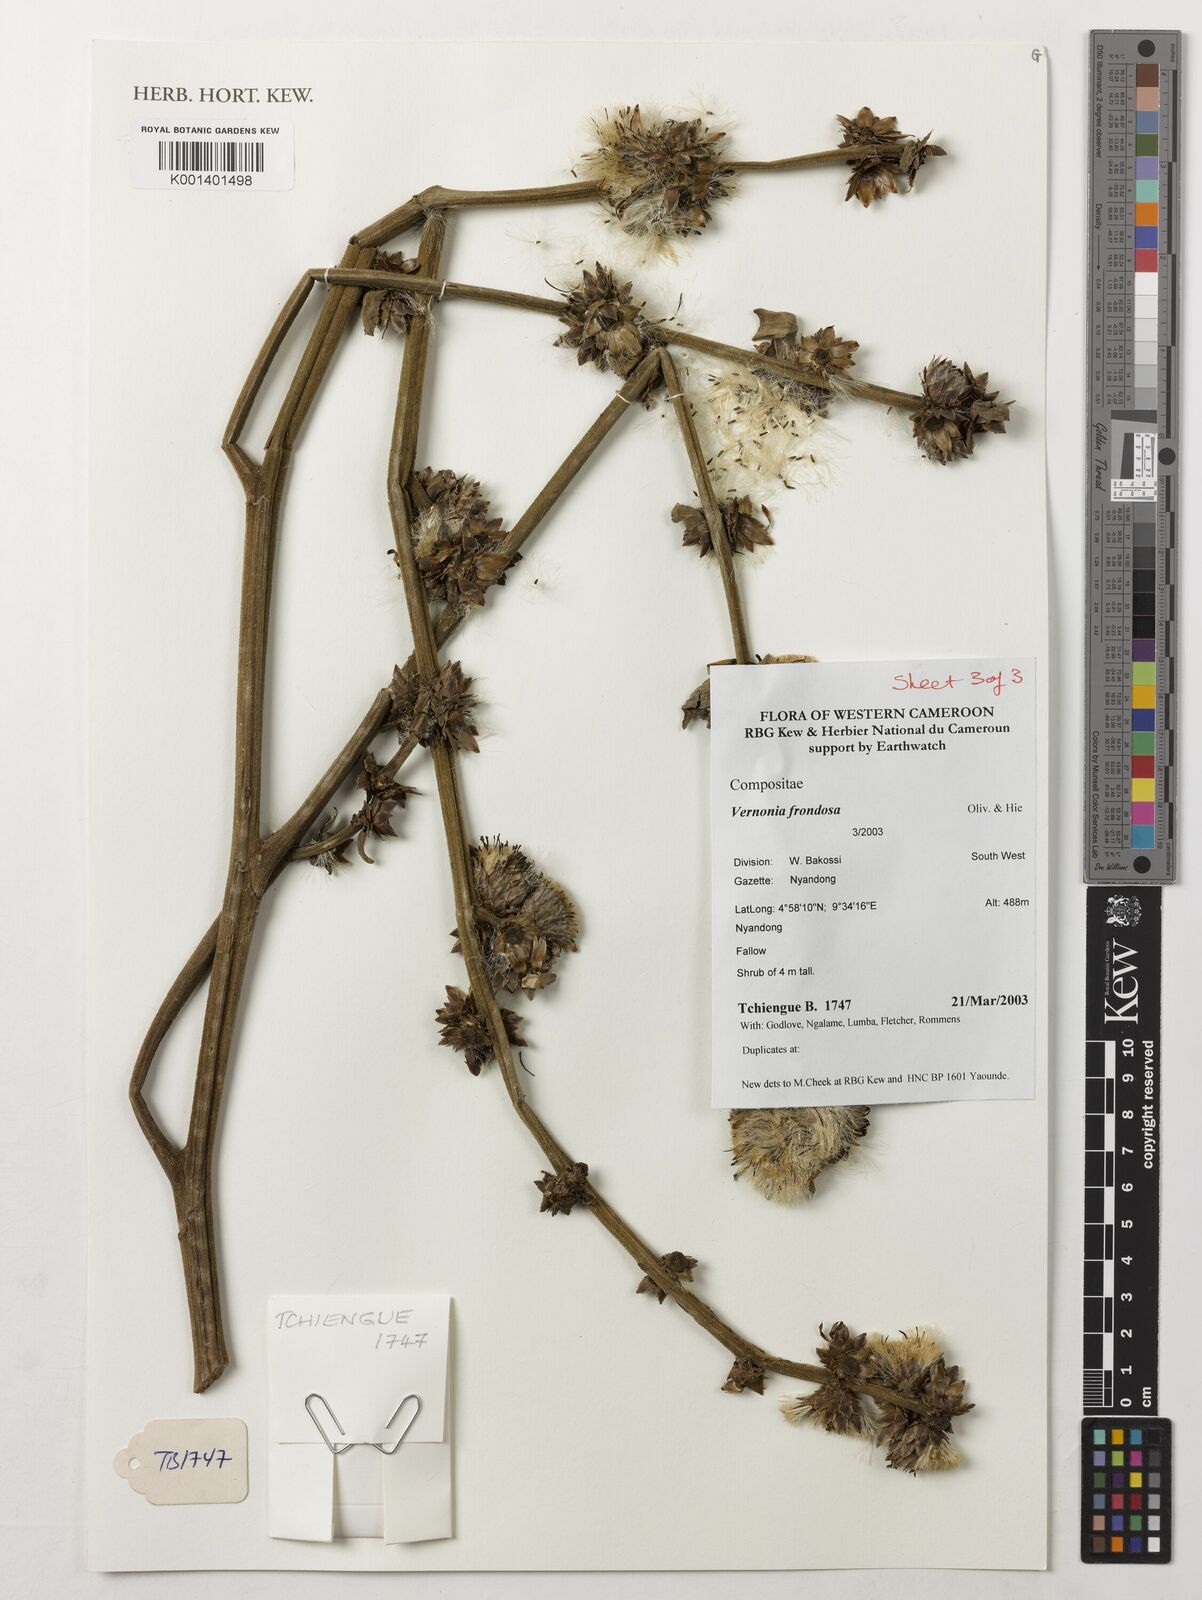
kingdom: Plantae
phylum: Tracheophyta
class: Magnoliopsida
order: Asterales
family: Asteraceae
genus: Brenandendron
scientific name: Brenandendron frondosum
